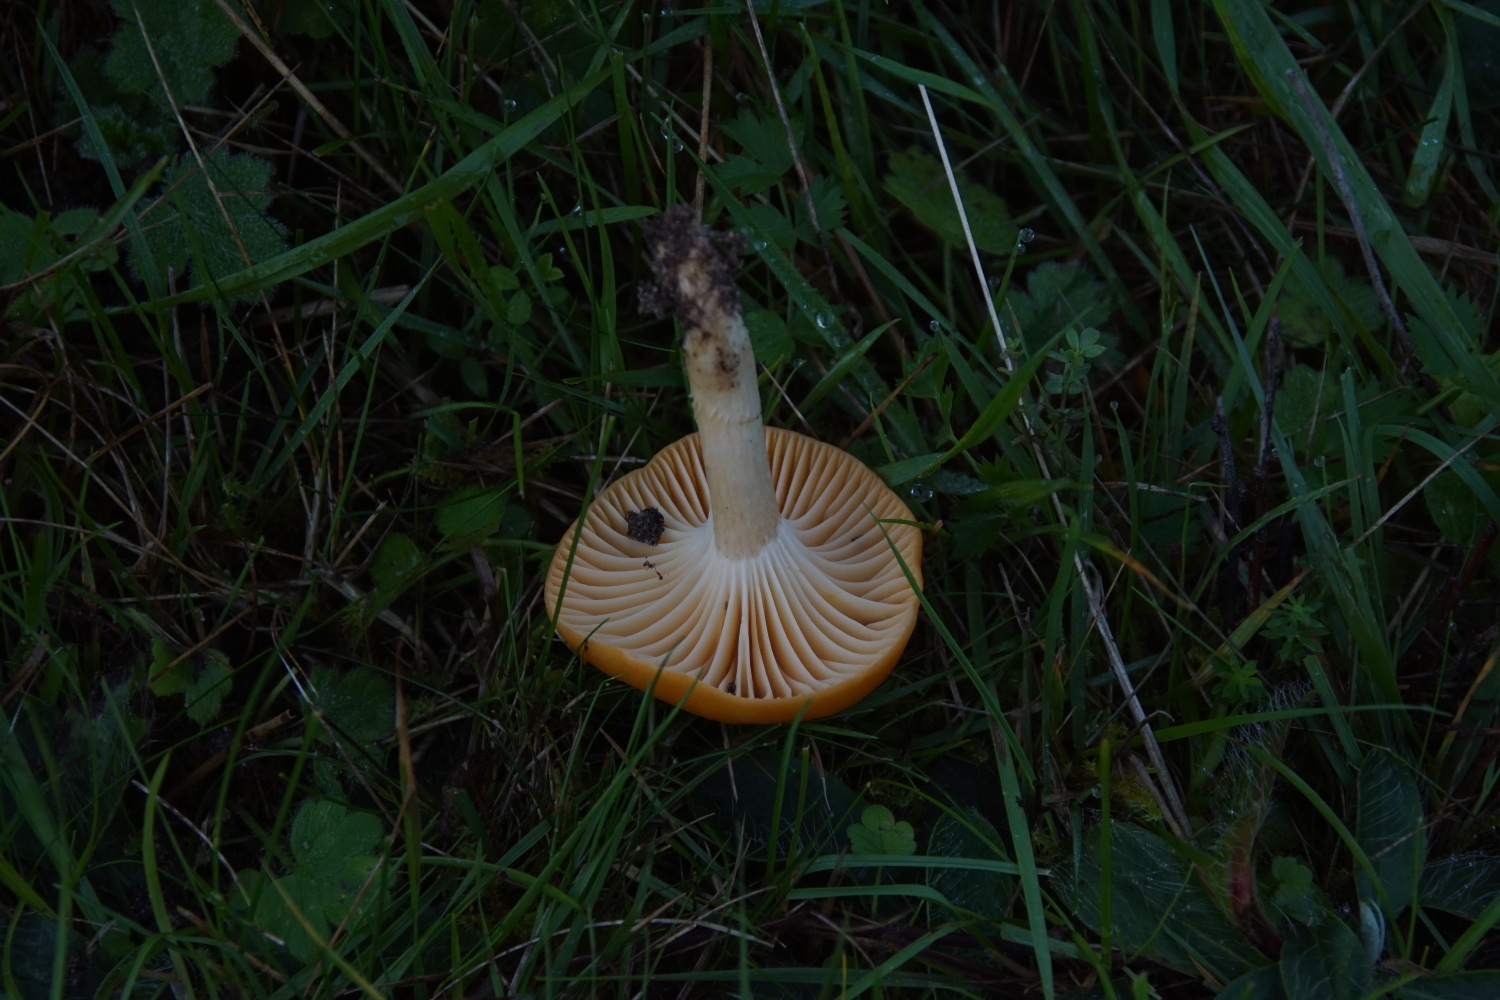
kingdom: Fungi
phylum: Basidiomycota
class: Agaricomycetes
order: Agaricales
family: Hygrophoraceae
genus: Cuphophyllus
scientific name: Cuphophyllus pratensis
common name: eng-vokshat
